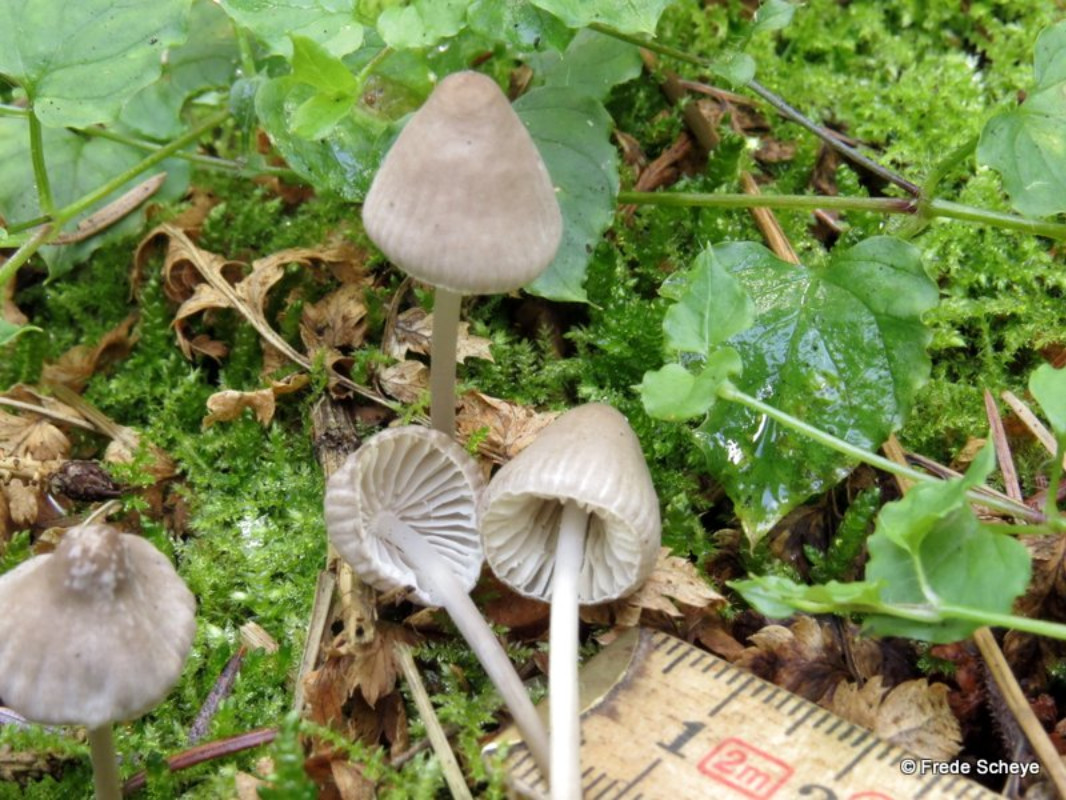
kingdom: Fungi
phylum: Basidiomycota
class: Agaricomycetes
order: Agaricales
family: Mycenaceae
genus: Mycena
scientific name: Mycena galopus
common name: hvidmælket huesvamp
